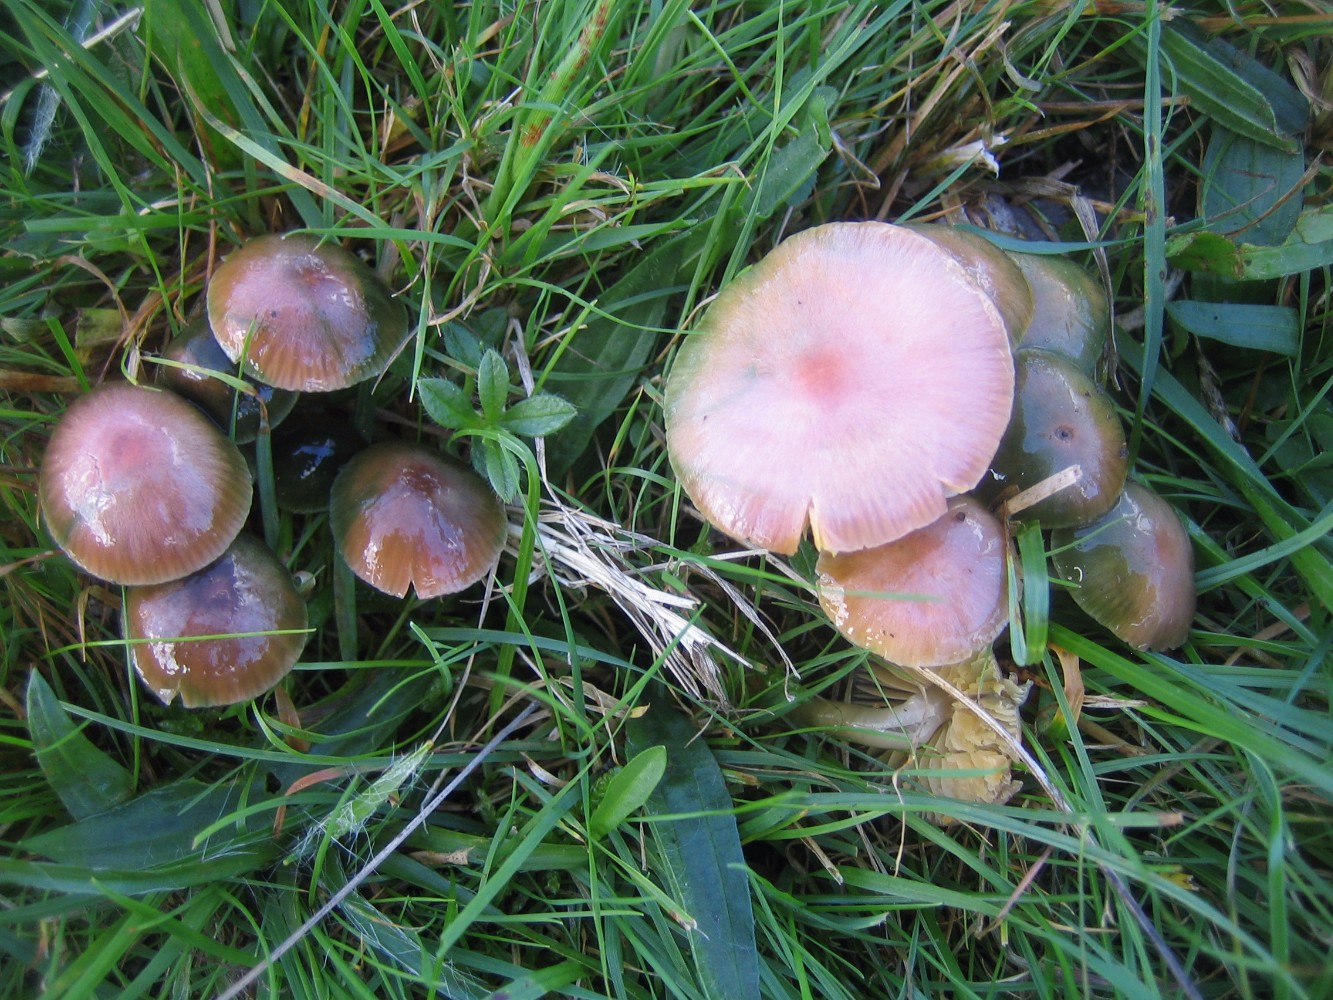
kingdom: Fungi
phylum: Basidiomycota
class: Agaricomycetes
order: Agaricales
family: Hygrophoraceae
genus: Gliophorus
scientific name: Gliophorus psittacinus
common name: papegøje-vokshat
